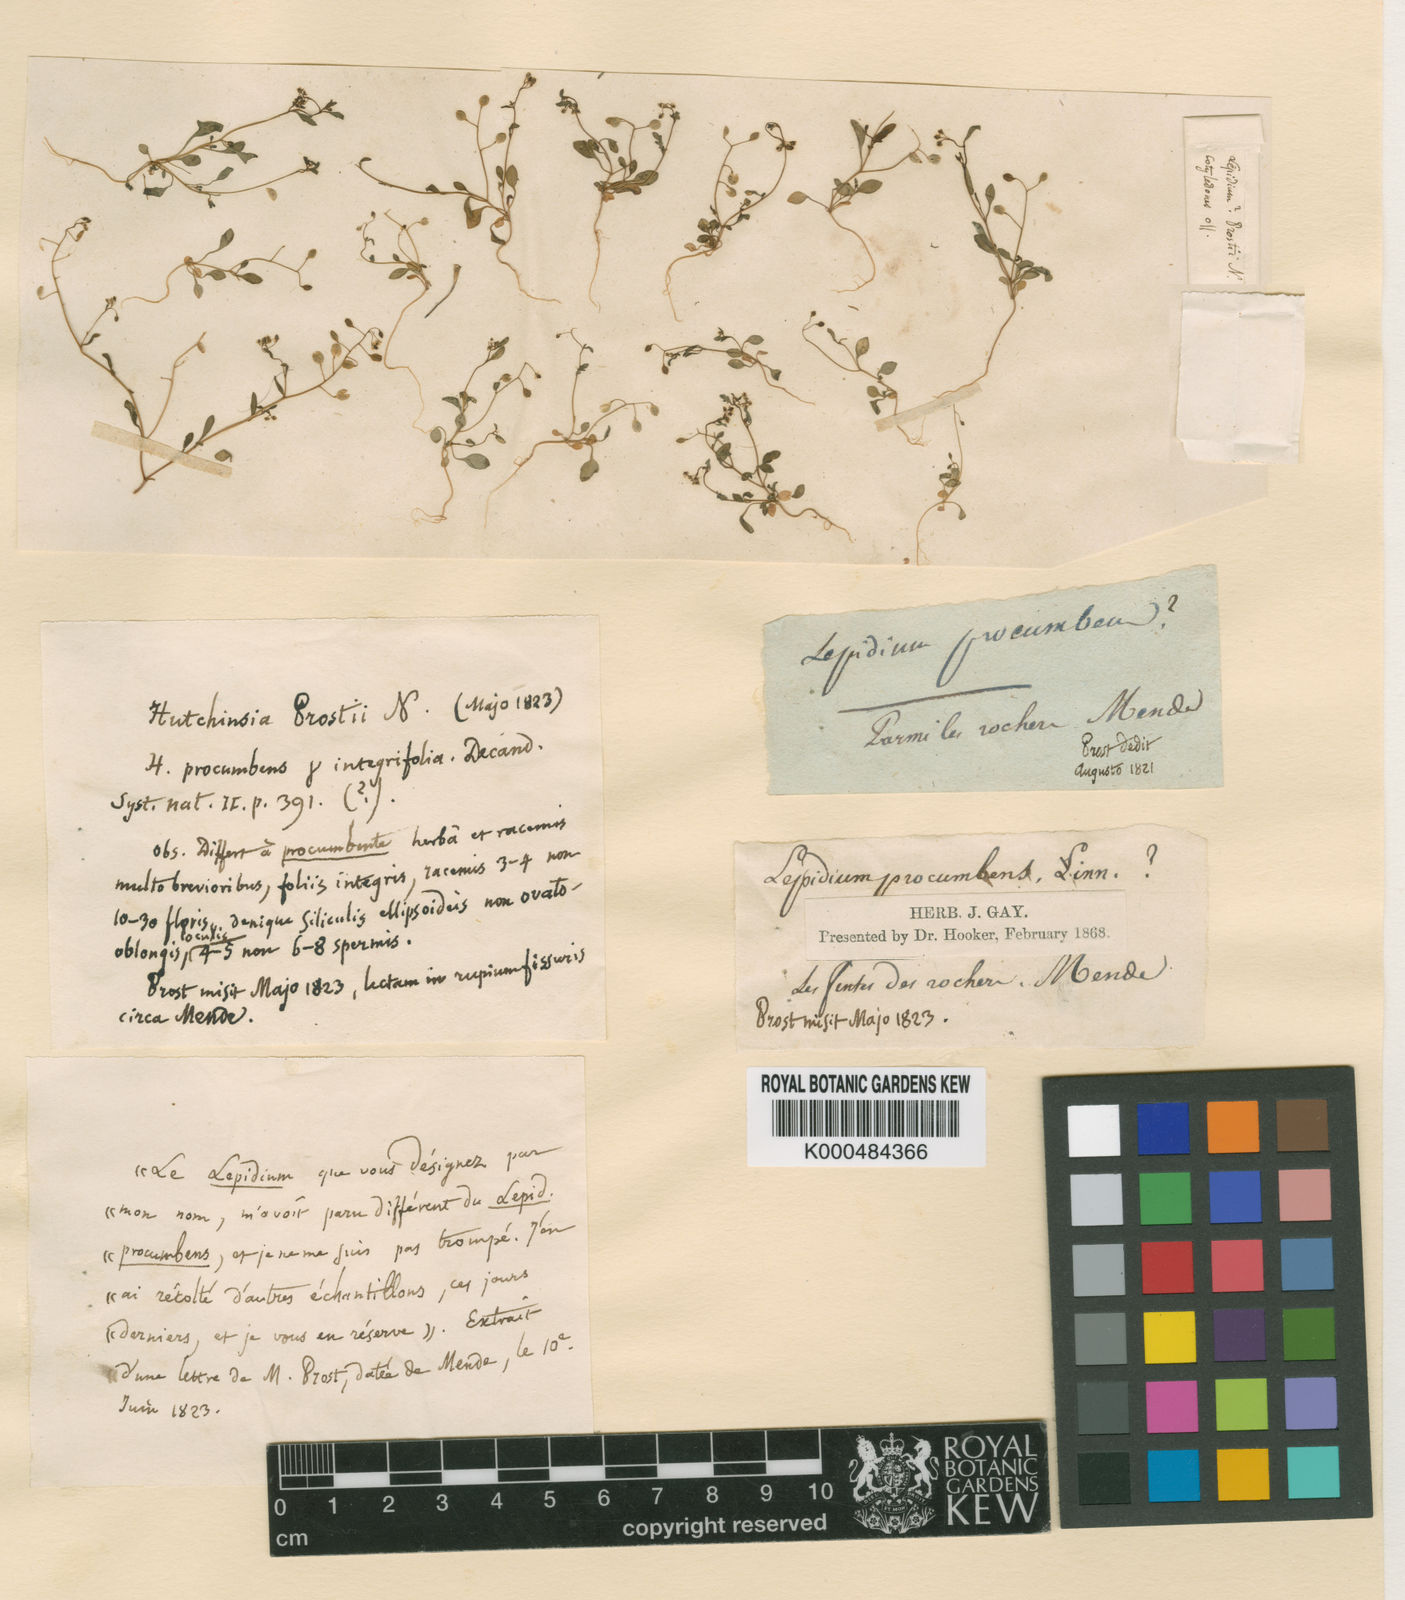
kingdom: Plantae
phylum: Tracheophyta
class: Magnoliopsida
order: Brassicales
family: Brassicaceae
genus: Hornungia
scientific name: Hornungia procumbens
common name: Oval purse
